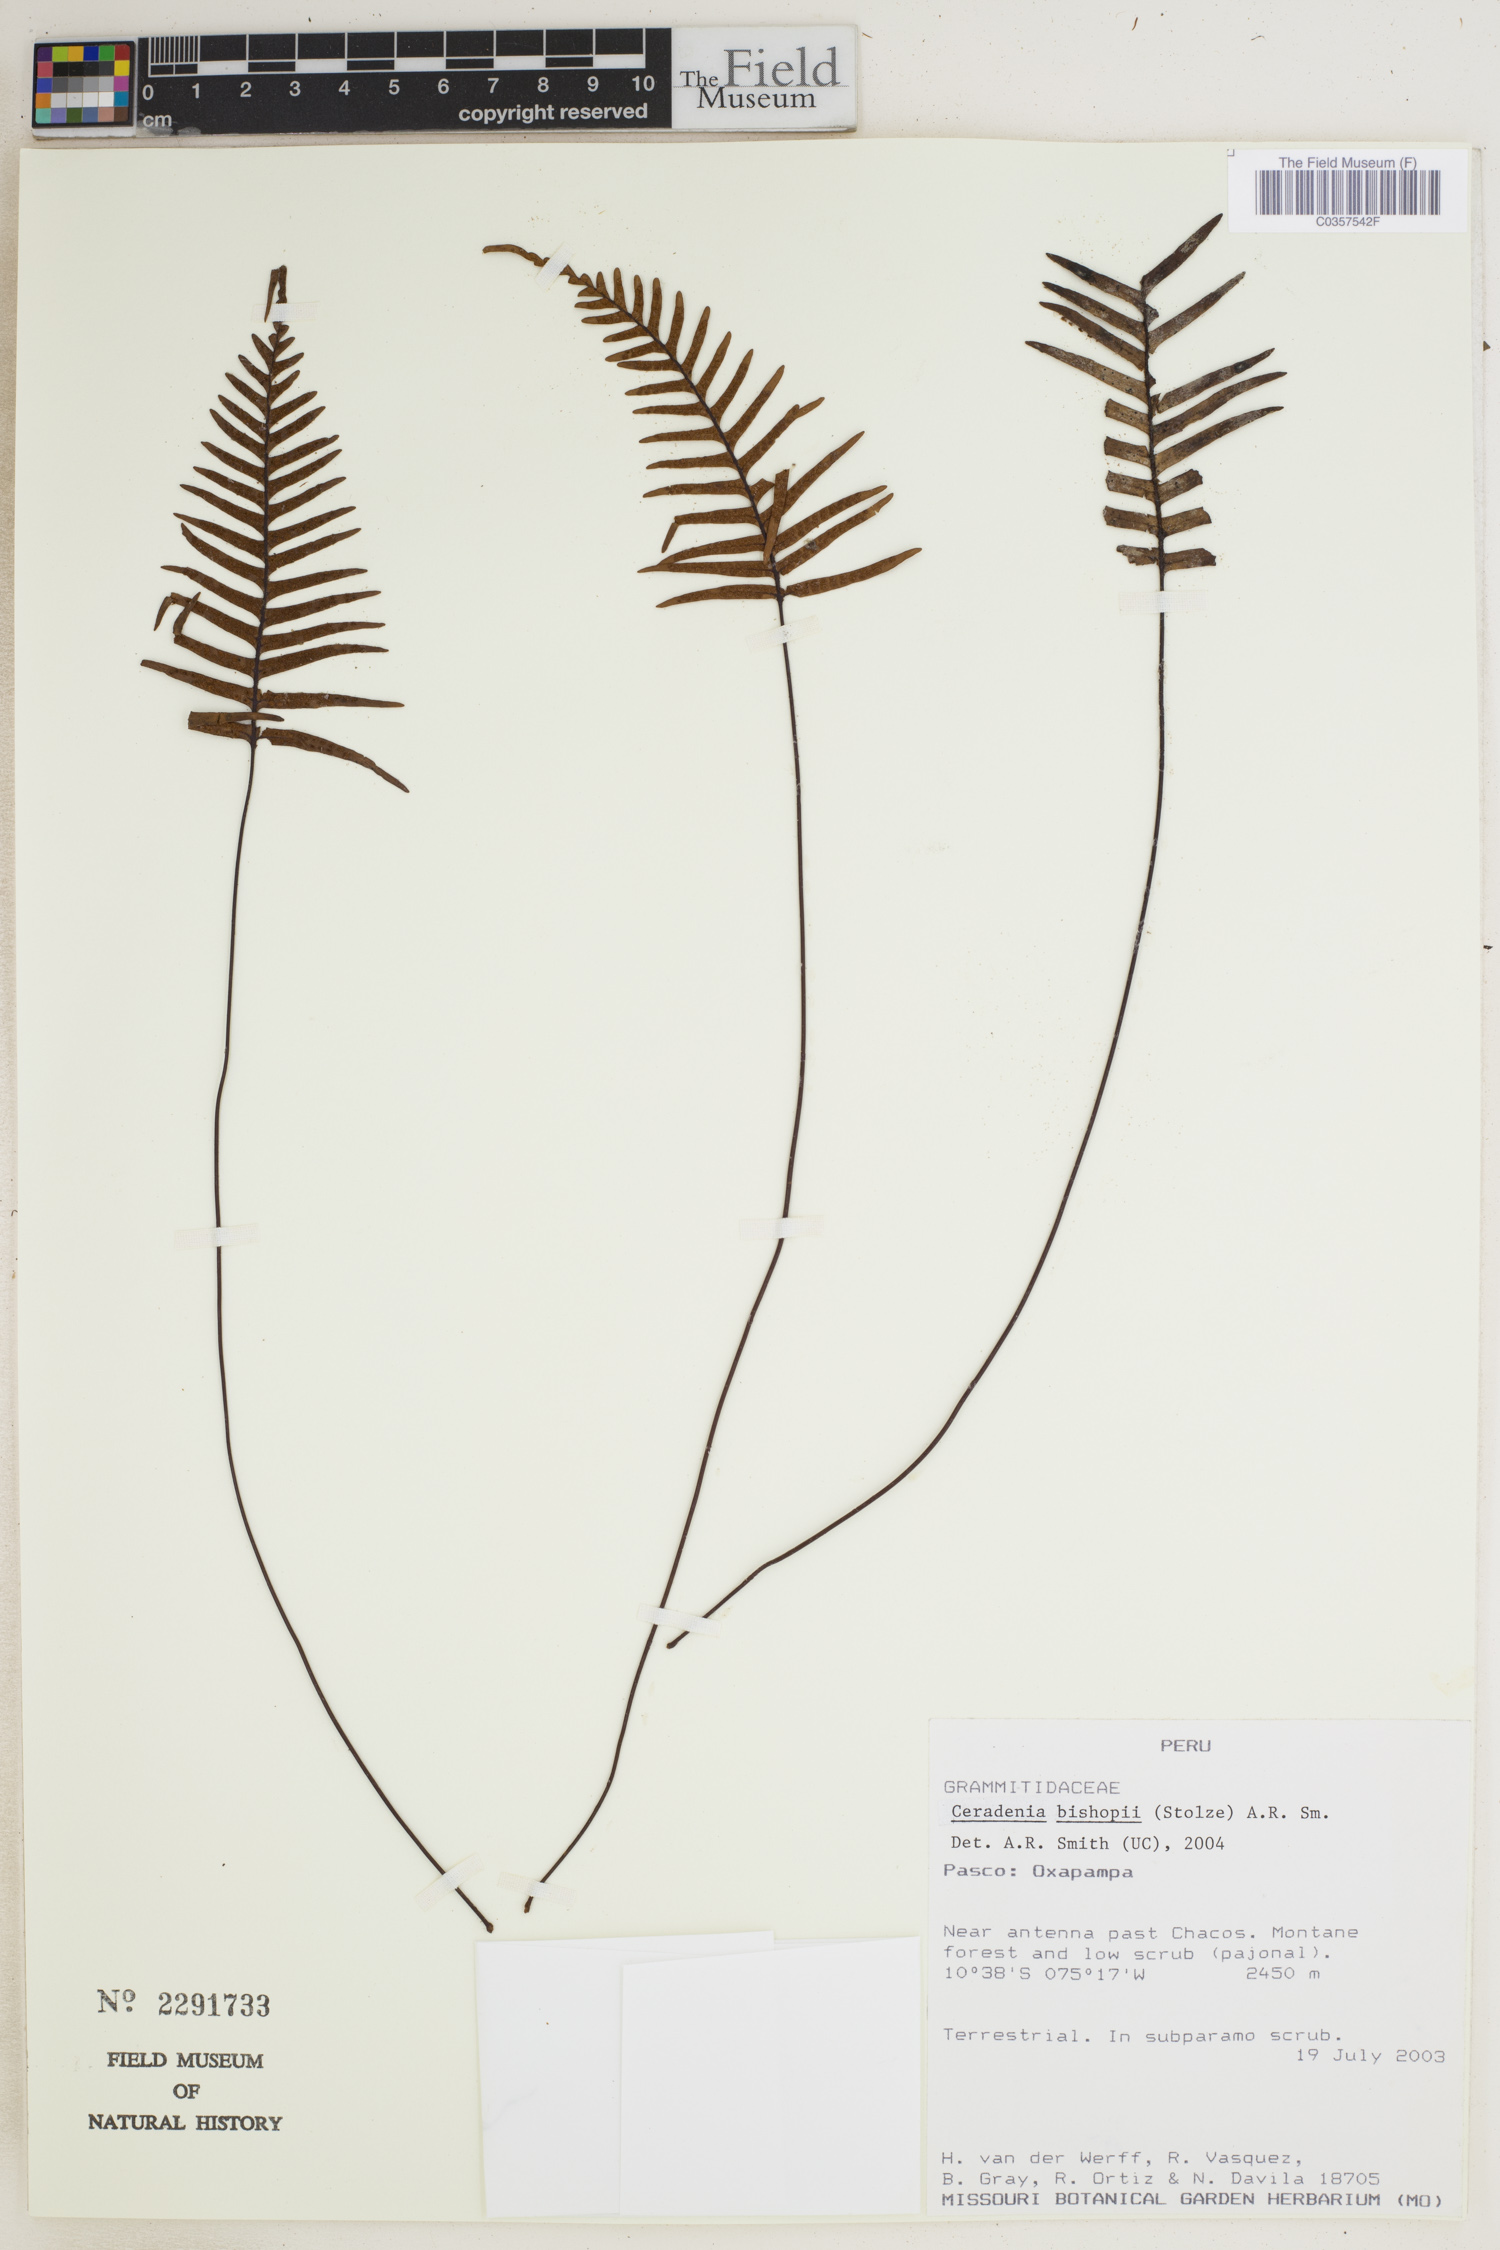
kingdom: Plantae
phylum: Tracheophyta
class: Polypodiopsida
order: Polypodiales
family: Polypodiaceae
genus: Ceradenia
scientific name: Ceradenia bishopii
